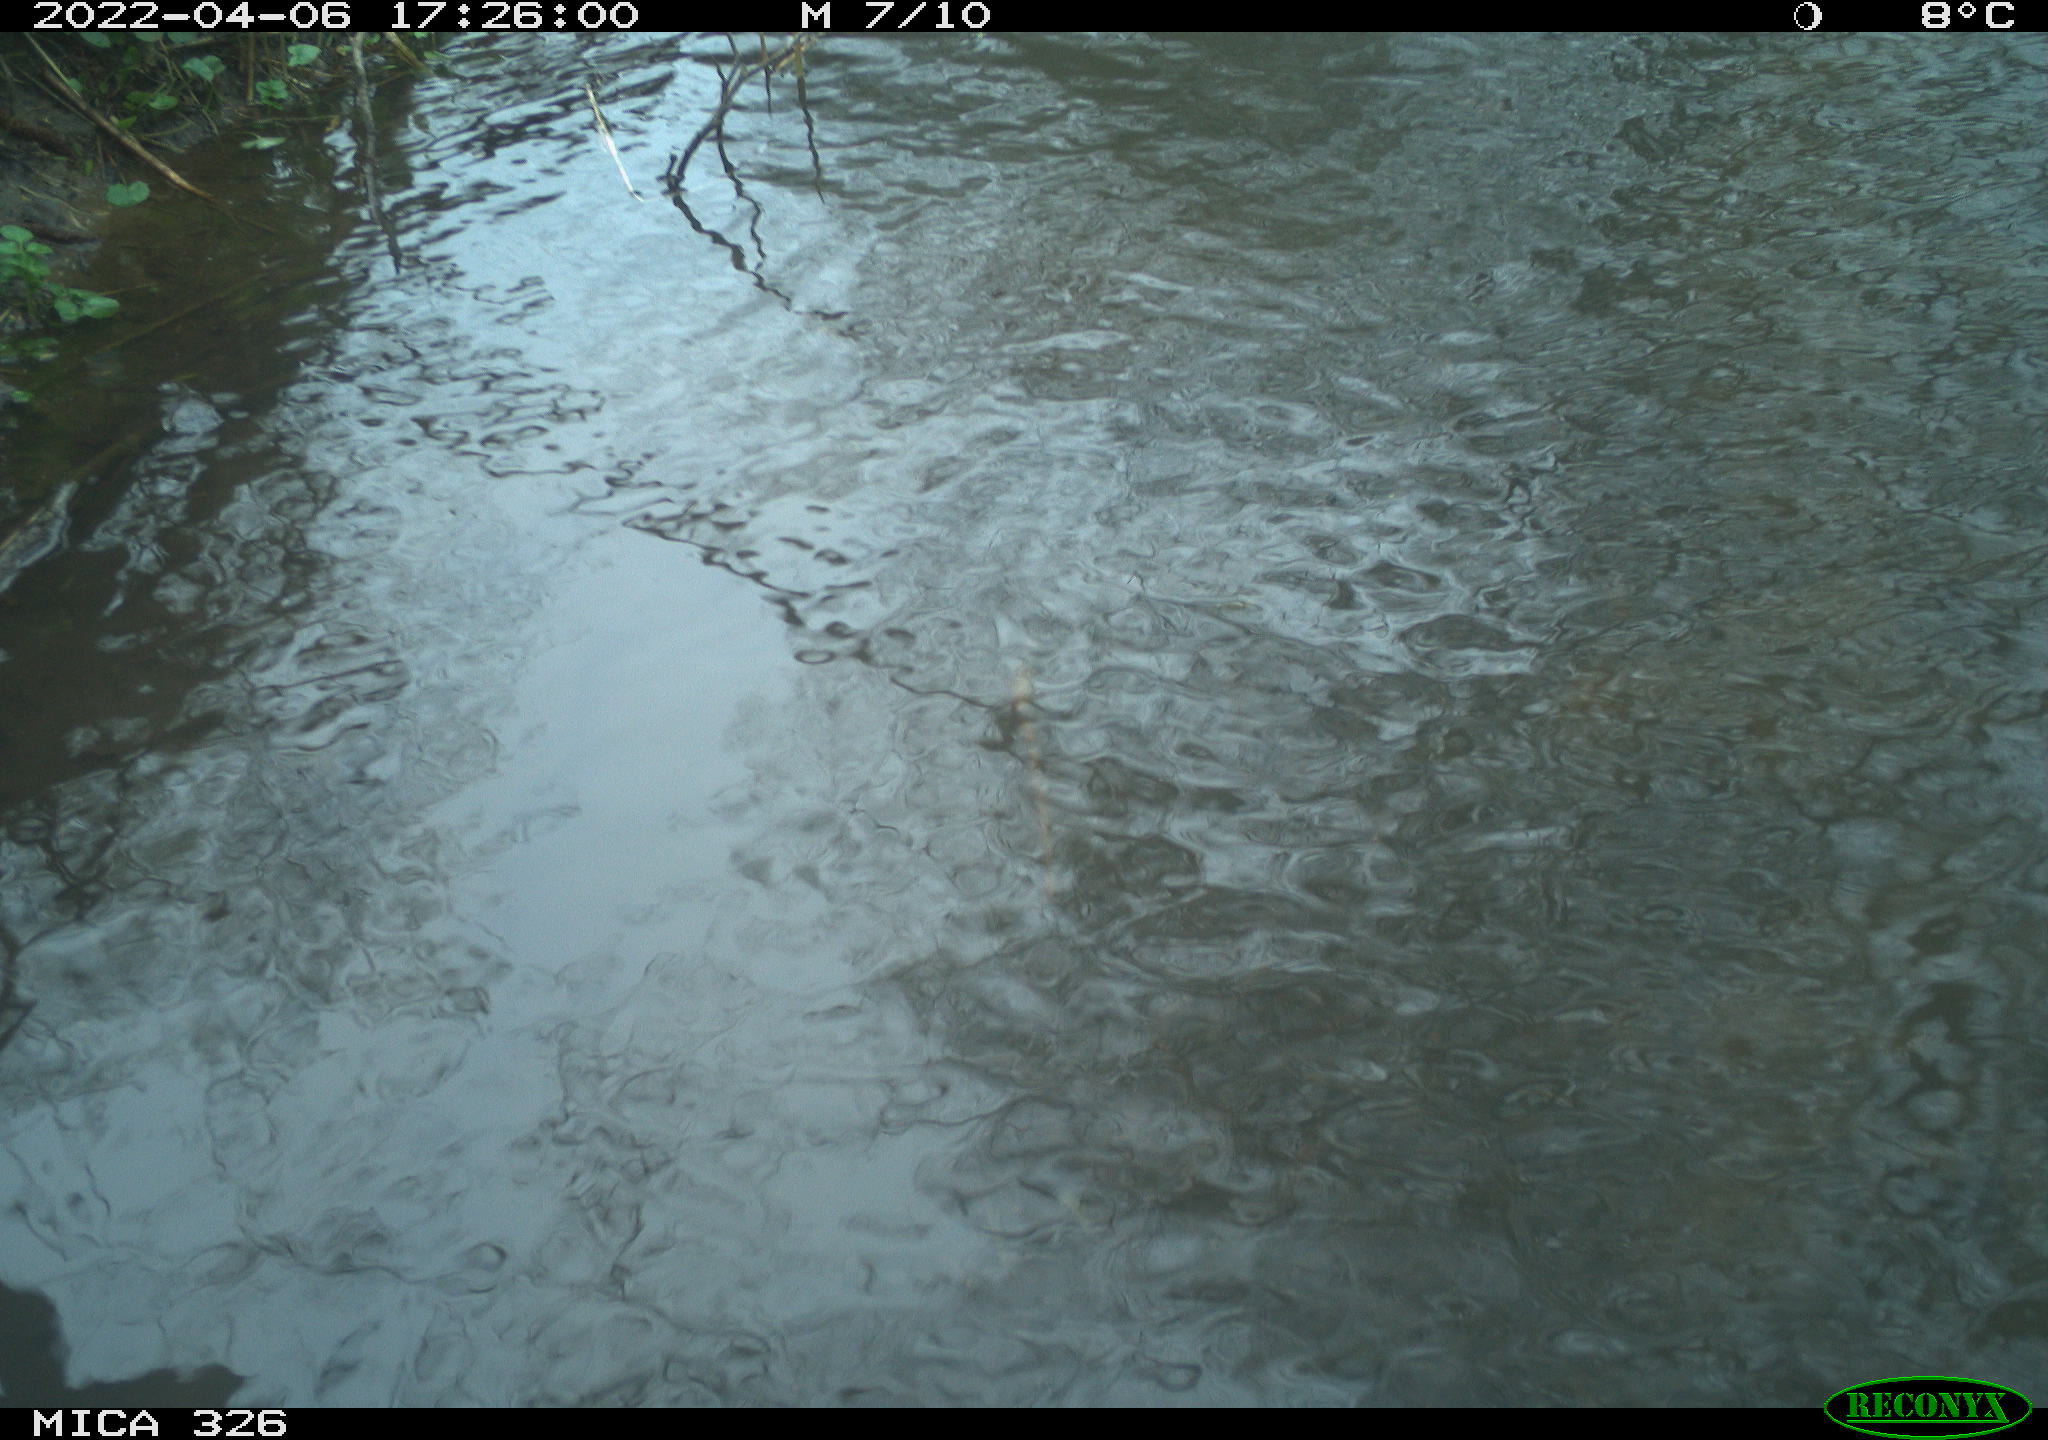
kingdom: Animalia
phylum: Chordata
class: Mammalia
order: Rodentia
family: Cricetidae
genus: Ondatra
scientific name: Ondatra zibethicus
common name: Muskrat
